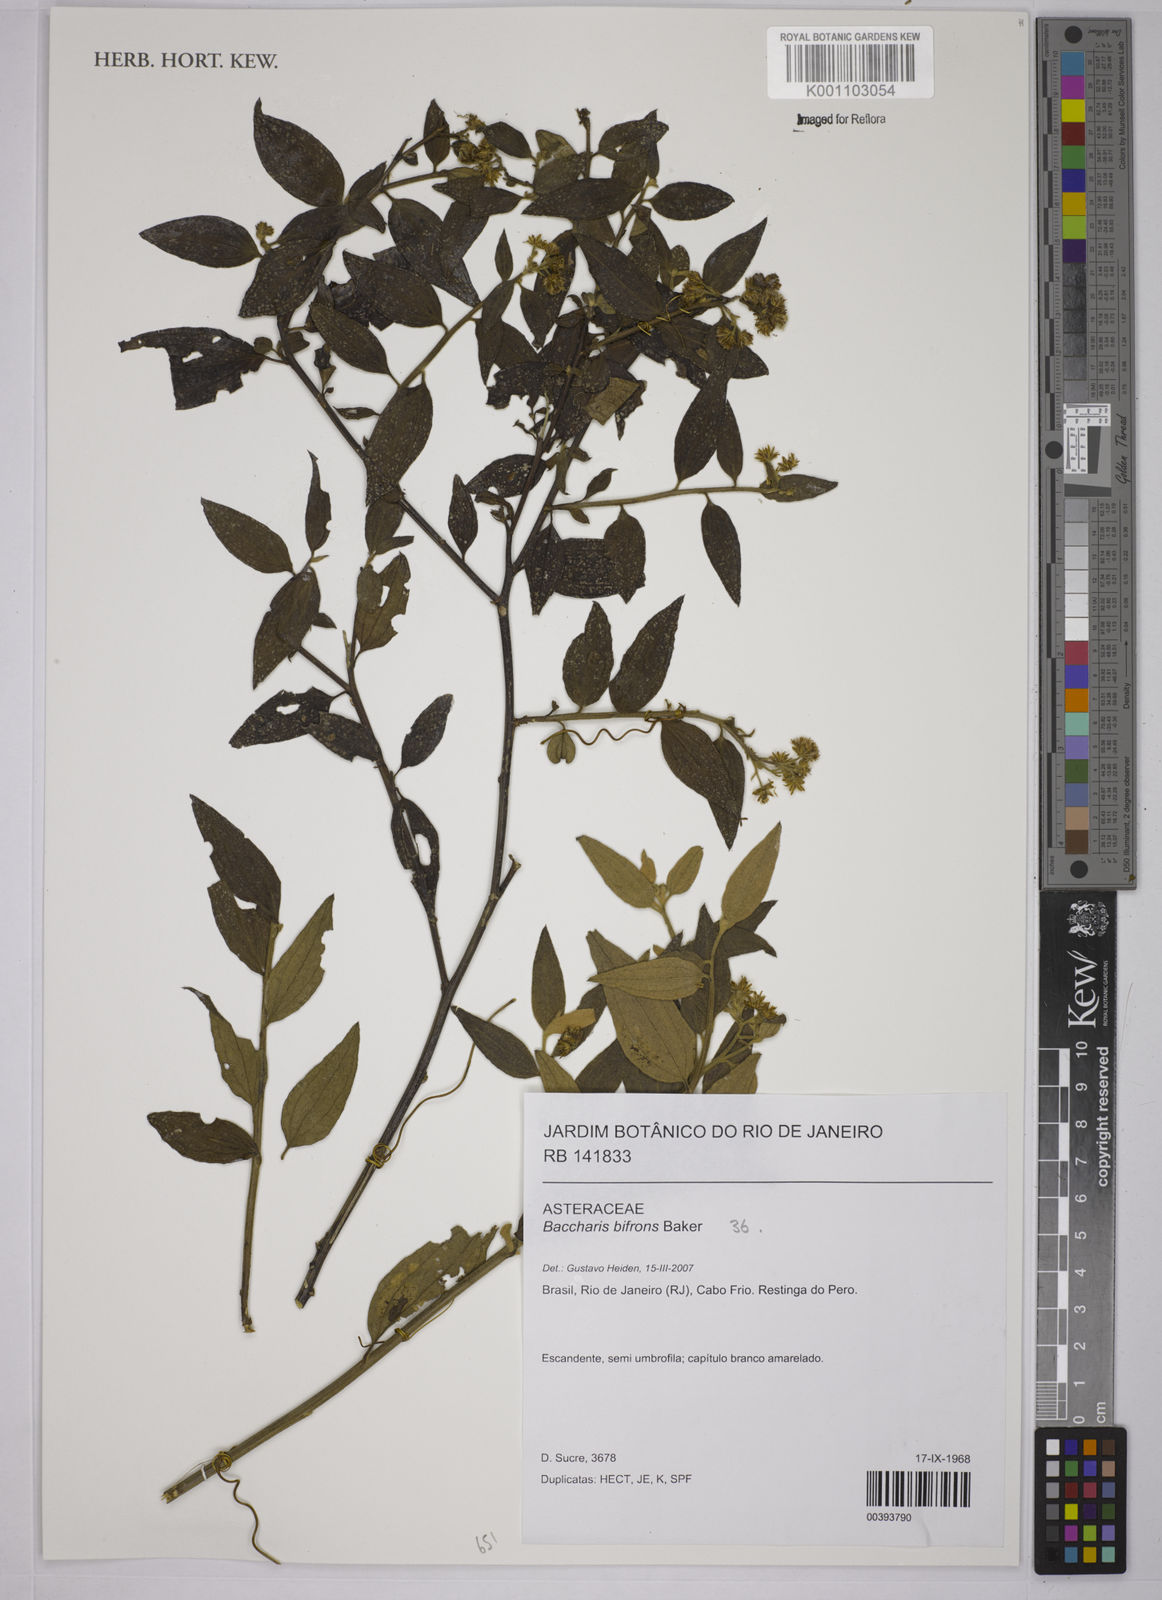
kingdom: Plantae
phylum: Tracheophyta
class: Magnoliopsida
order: Asterales
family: Asteraceae
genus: Baccharis
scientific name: Baccharis bifrons
